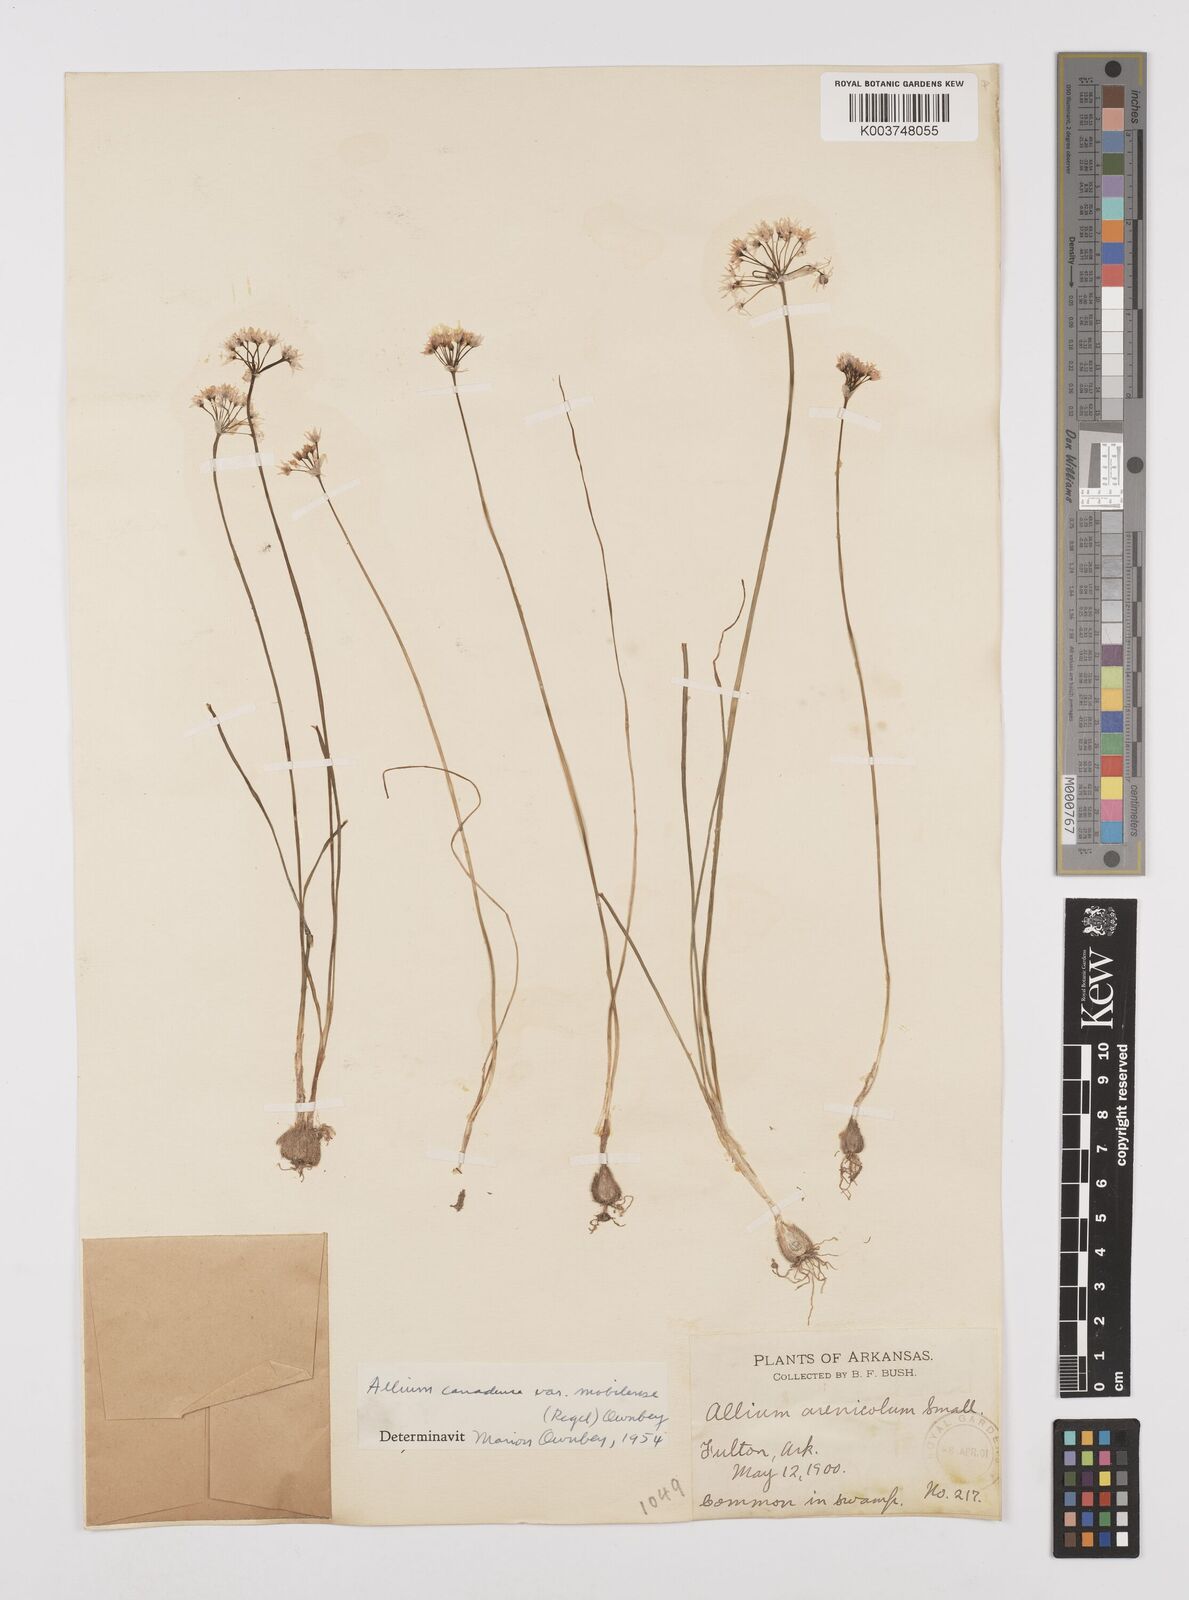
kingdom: Plantae
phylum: Tracheophyta
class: Liliopsida
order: Asparagales
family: Amaryllidaceae
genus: Allium
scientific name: Allium canadense
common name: Meadow garlic
